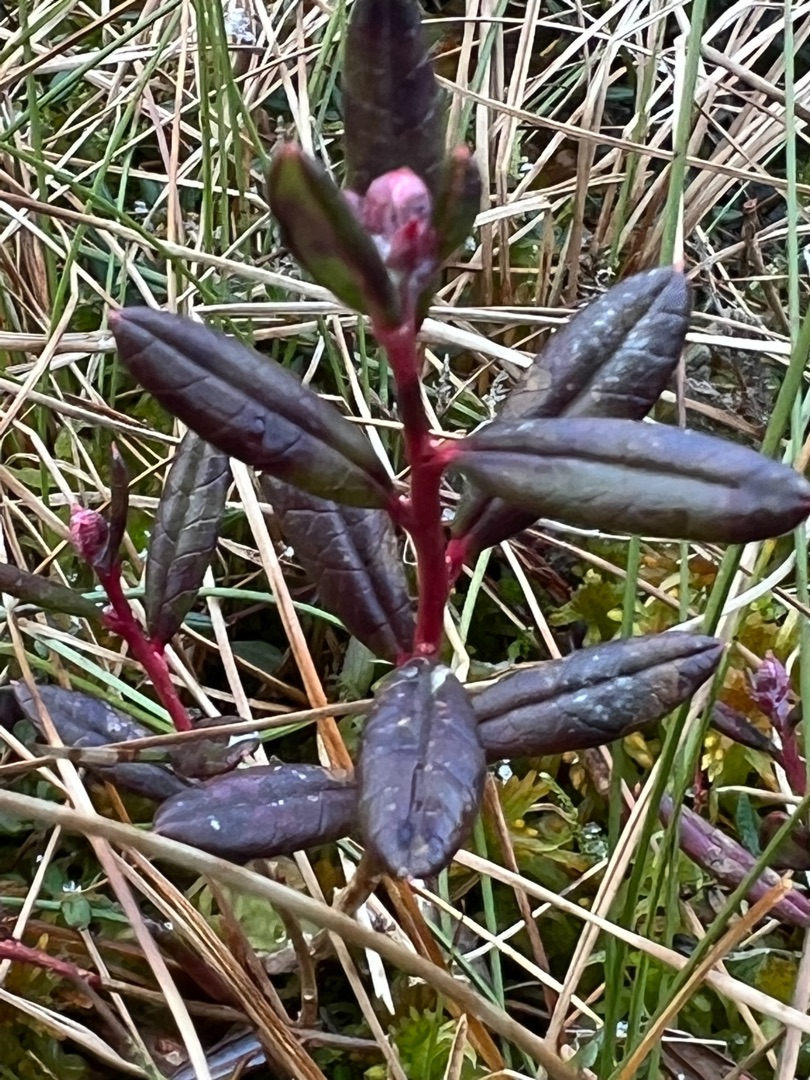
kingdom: Plantae
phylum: Tracheophyta
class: Magnoliopsida
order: Ericales
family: Ericaceae
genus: Andromeda
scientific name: Andromeda polifolia
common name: Rosmarinlyng
